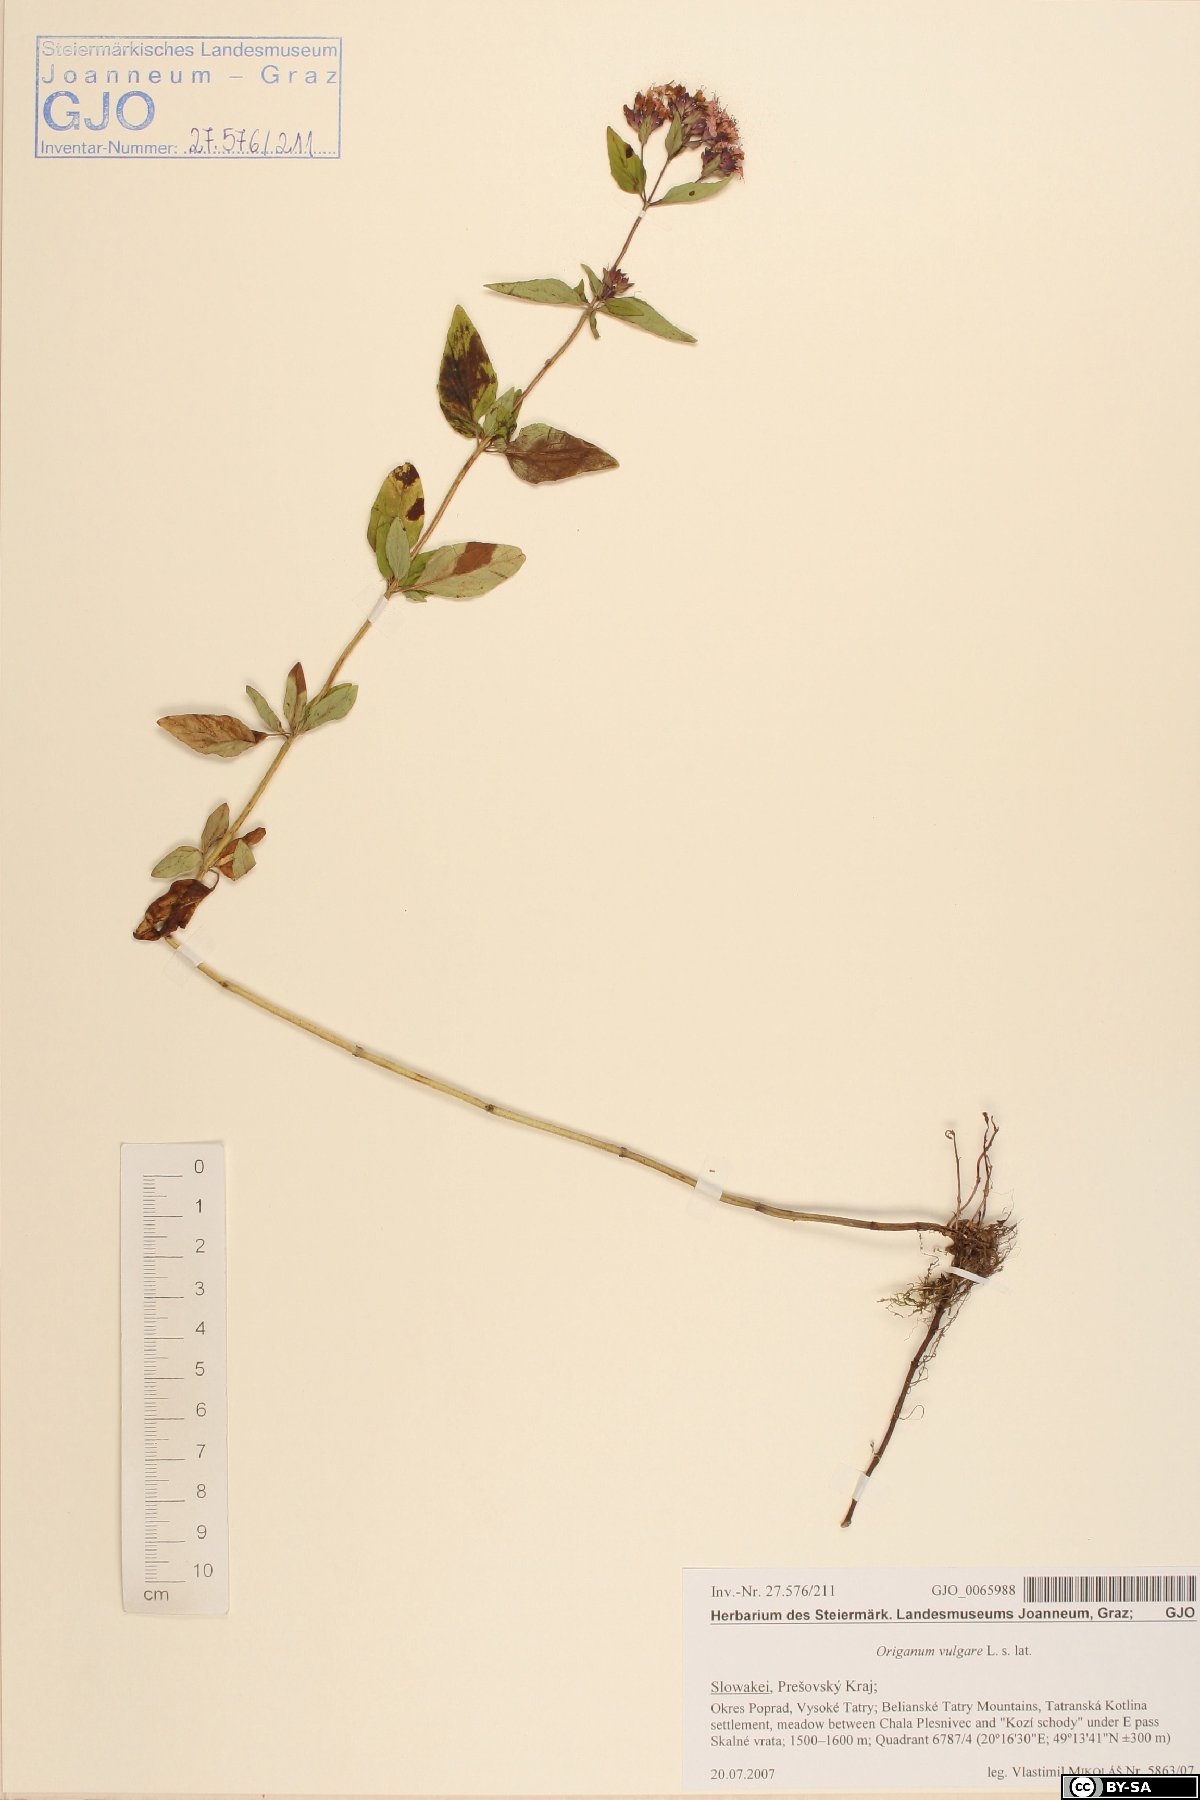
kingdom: Plantae
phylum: Tracheophyta
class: Magnoliopsida
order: Lamiales
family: Lamiaceae
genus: Origanum
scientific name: Origanum vulgare
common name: Wild marjoram
